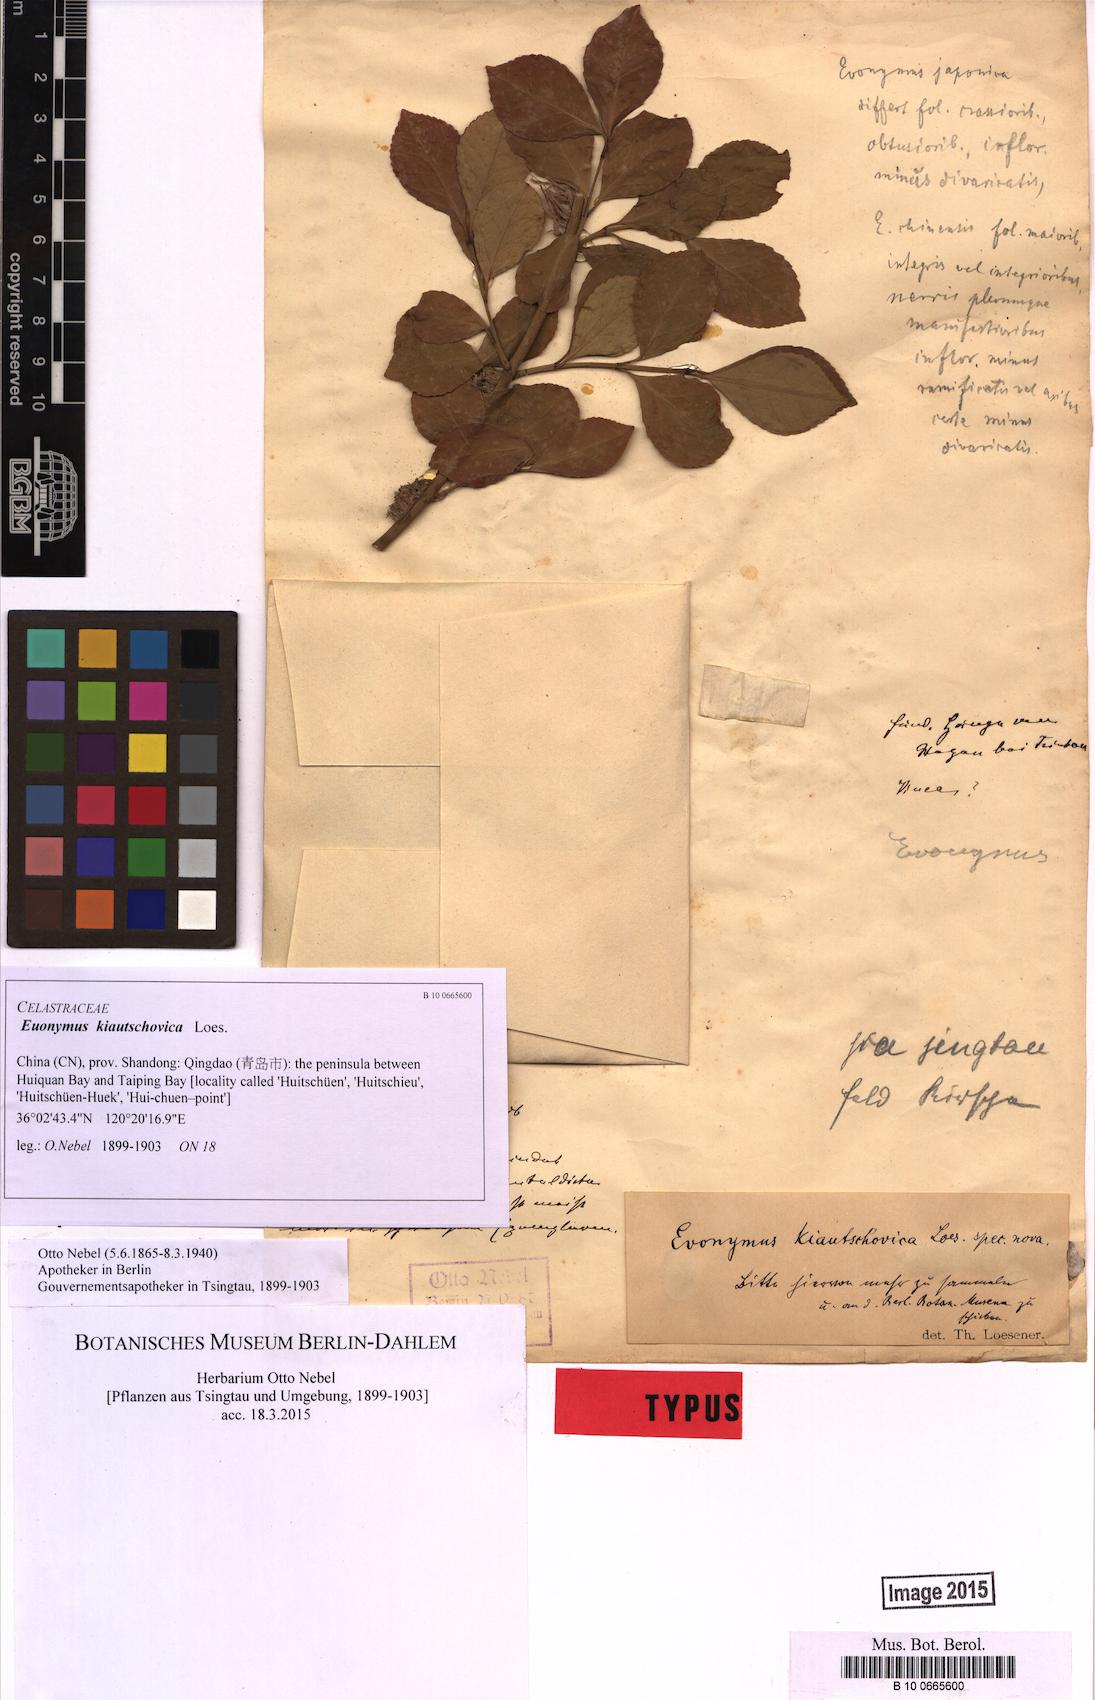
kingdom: Plantae
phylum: Tracheophyta
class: Magnoliopsida
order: Celastrales
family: Celastraceae
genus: Euonymus
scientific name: Euonymus fortunei
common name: Climbing euonymus
